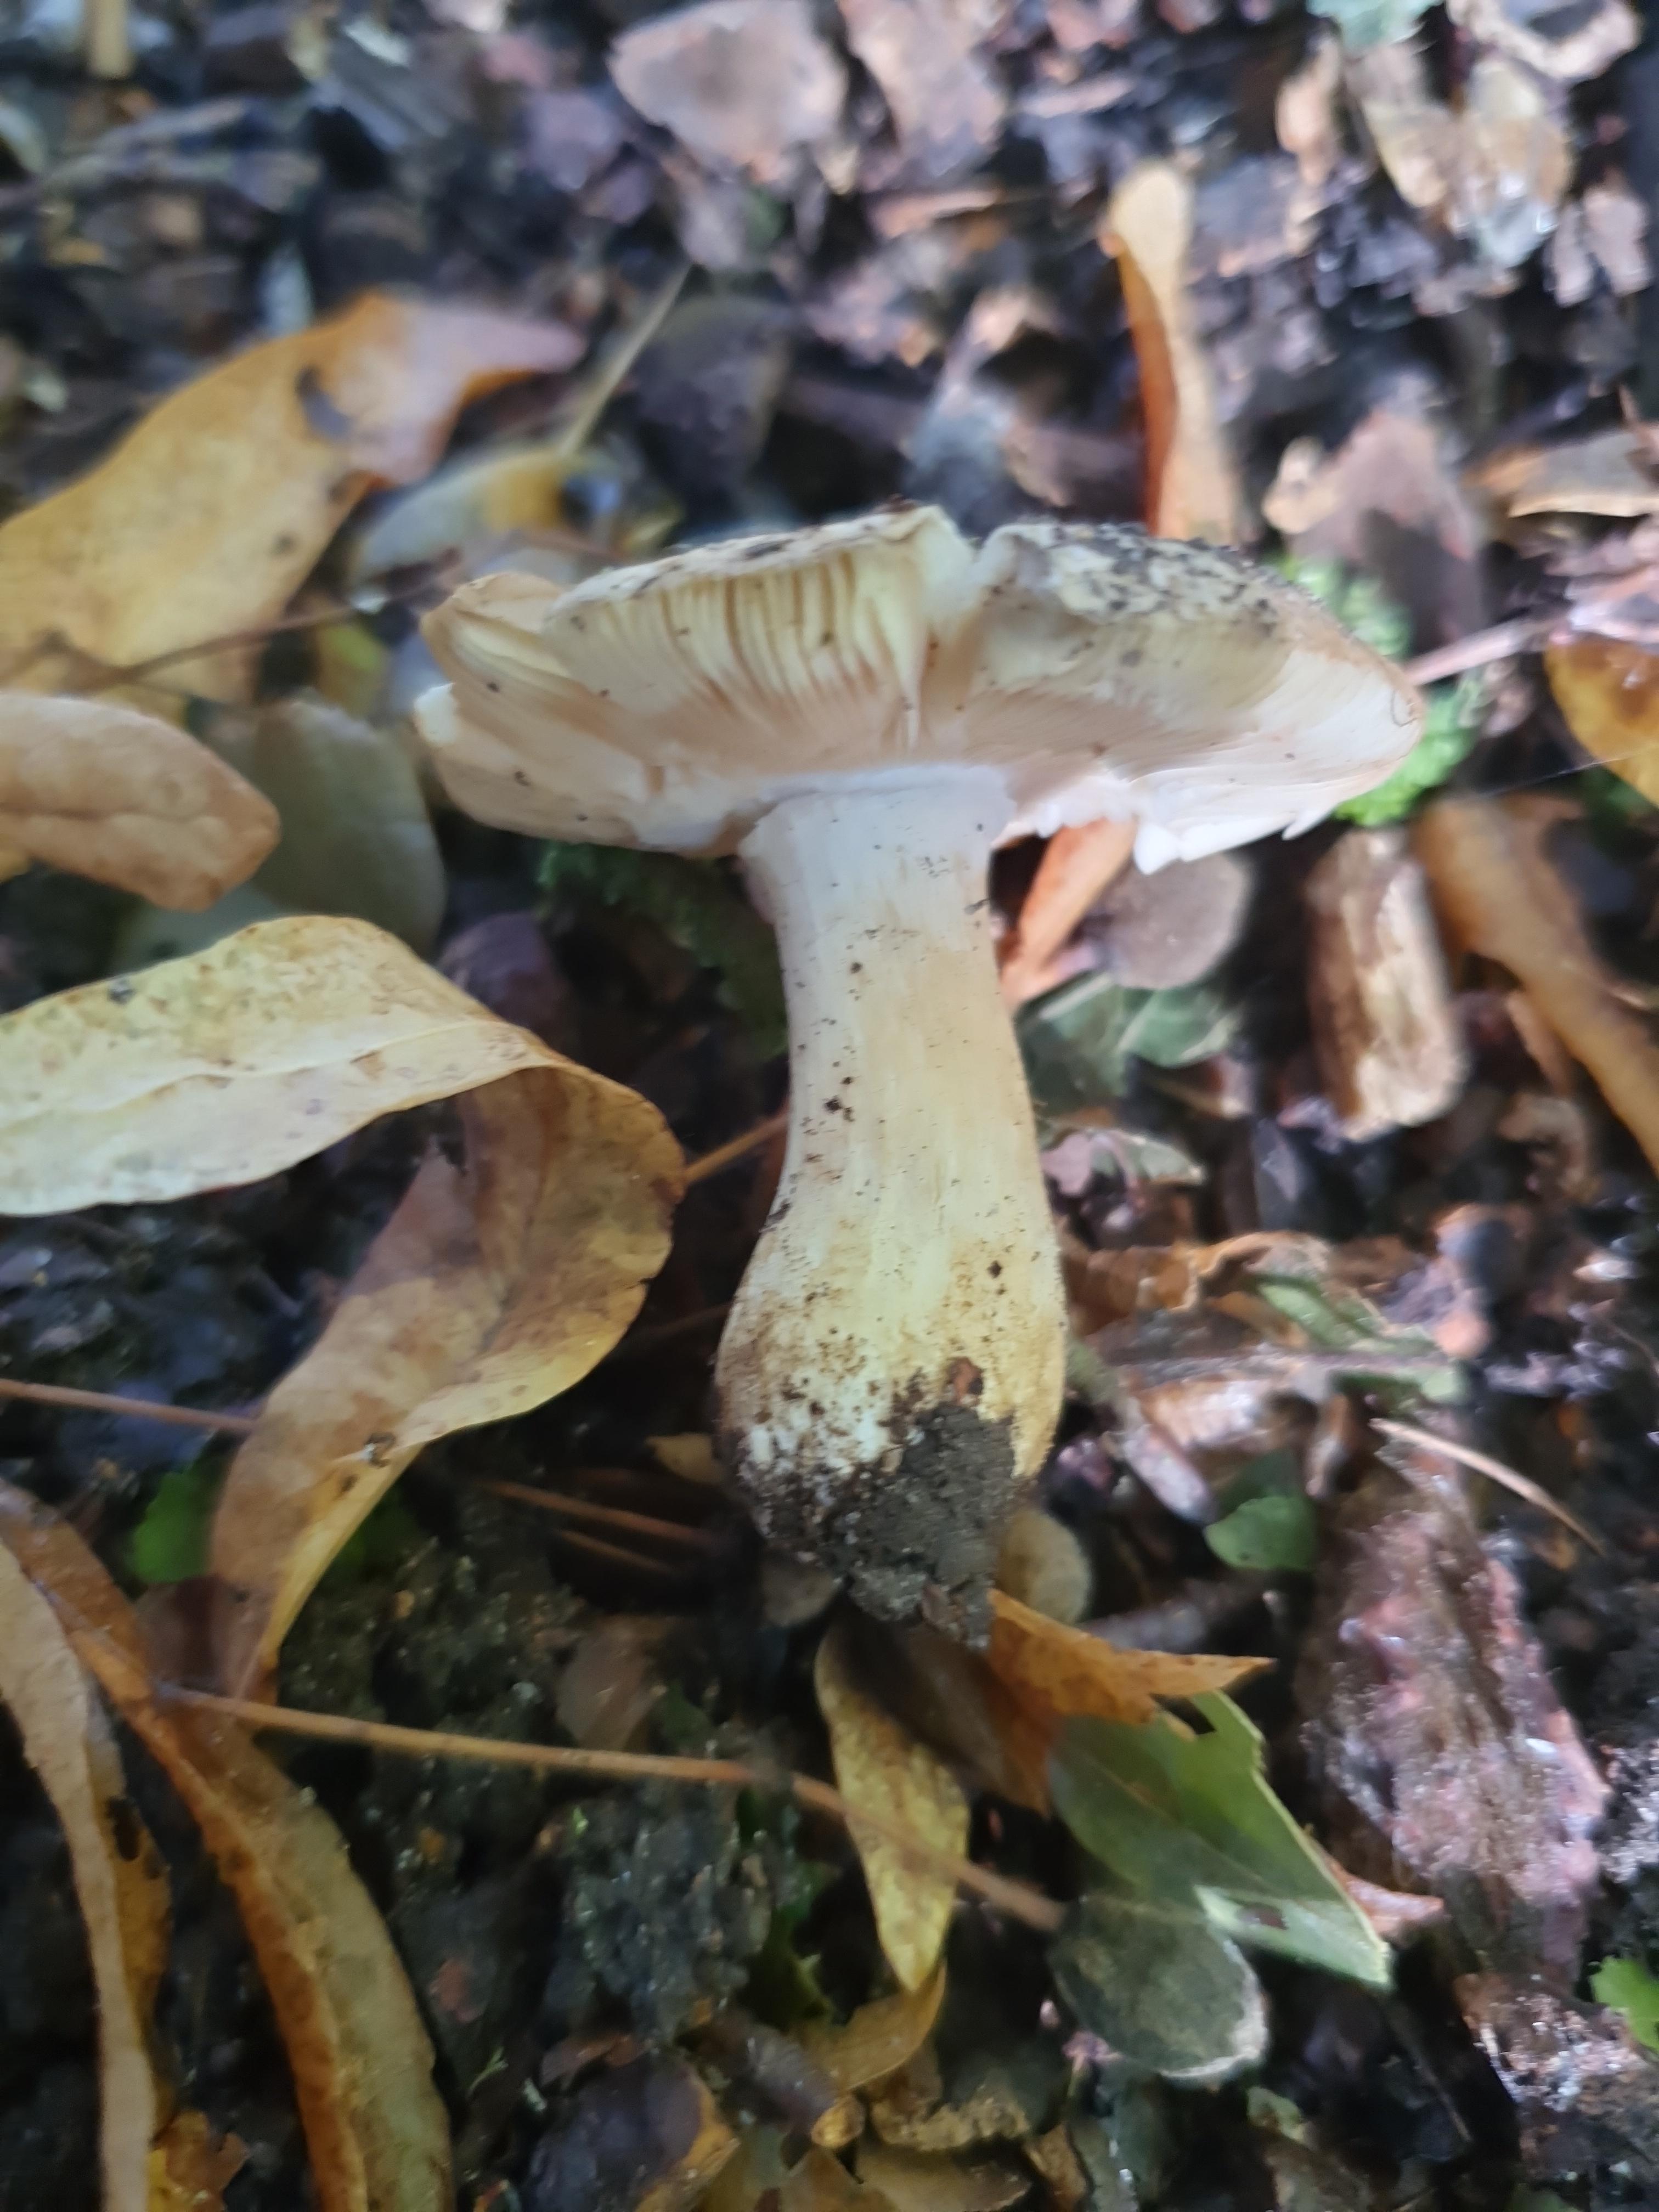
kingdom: Fungi
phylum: Basidiomycota
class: Agaricomycetes
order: Russulales
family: Russulaceae
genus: Russula
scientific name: Russula
